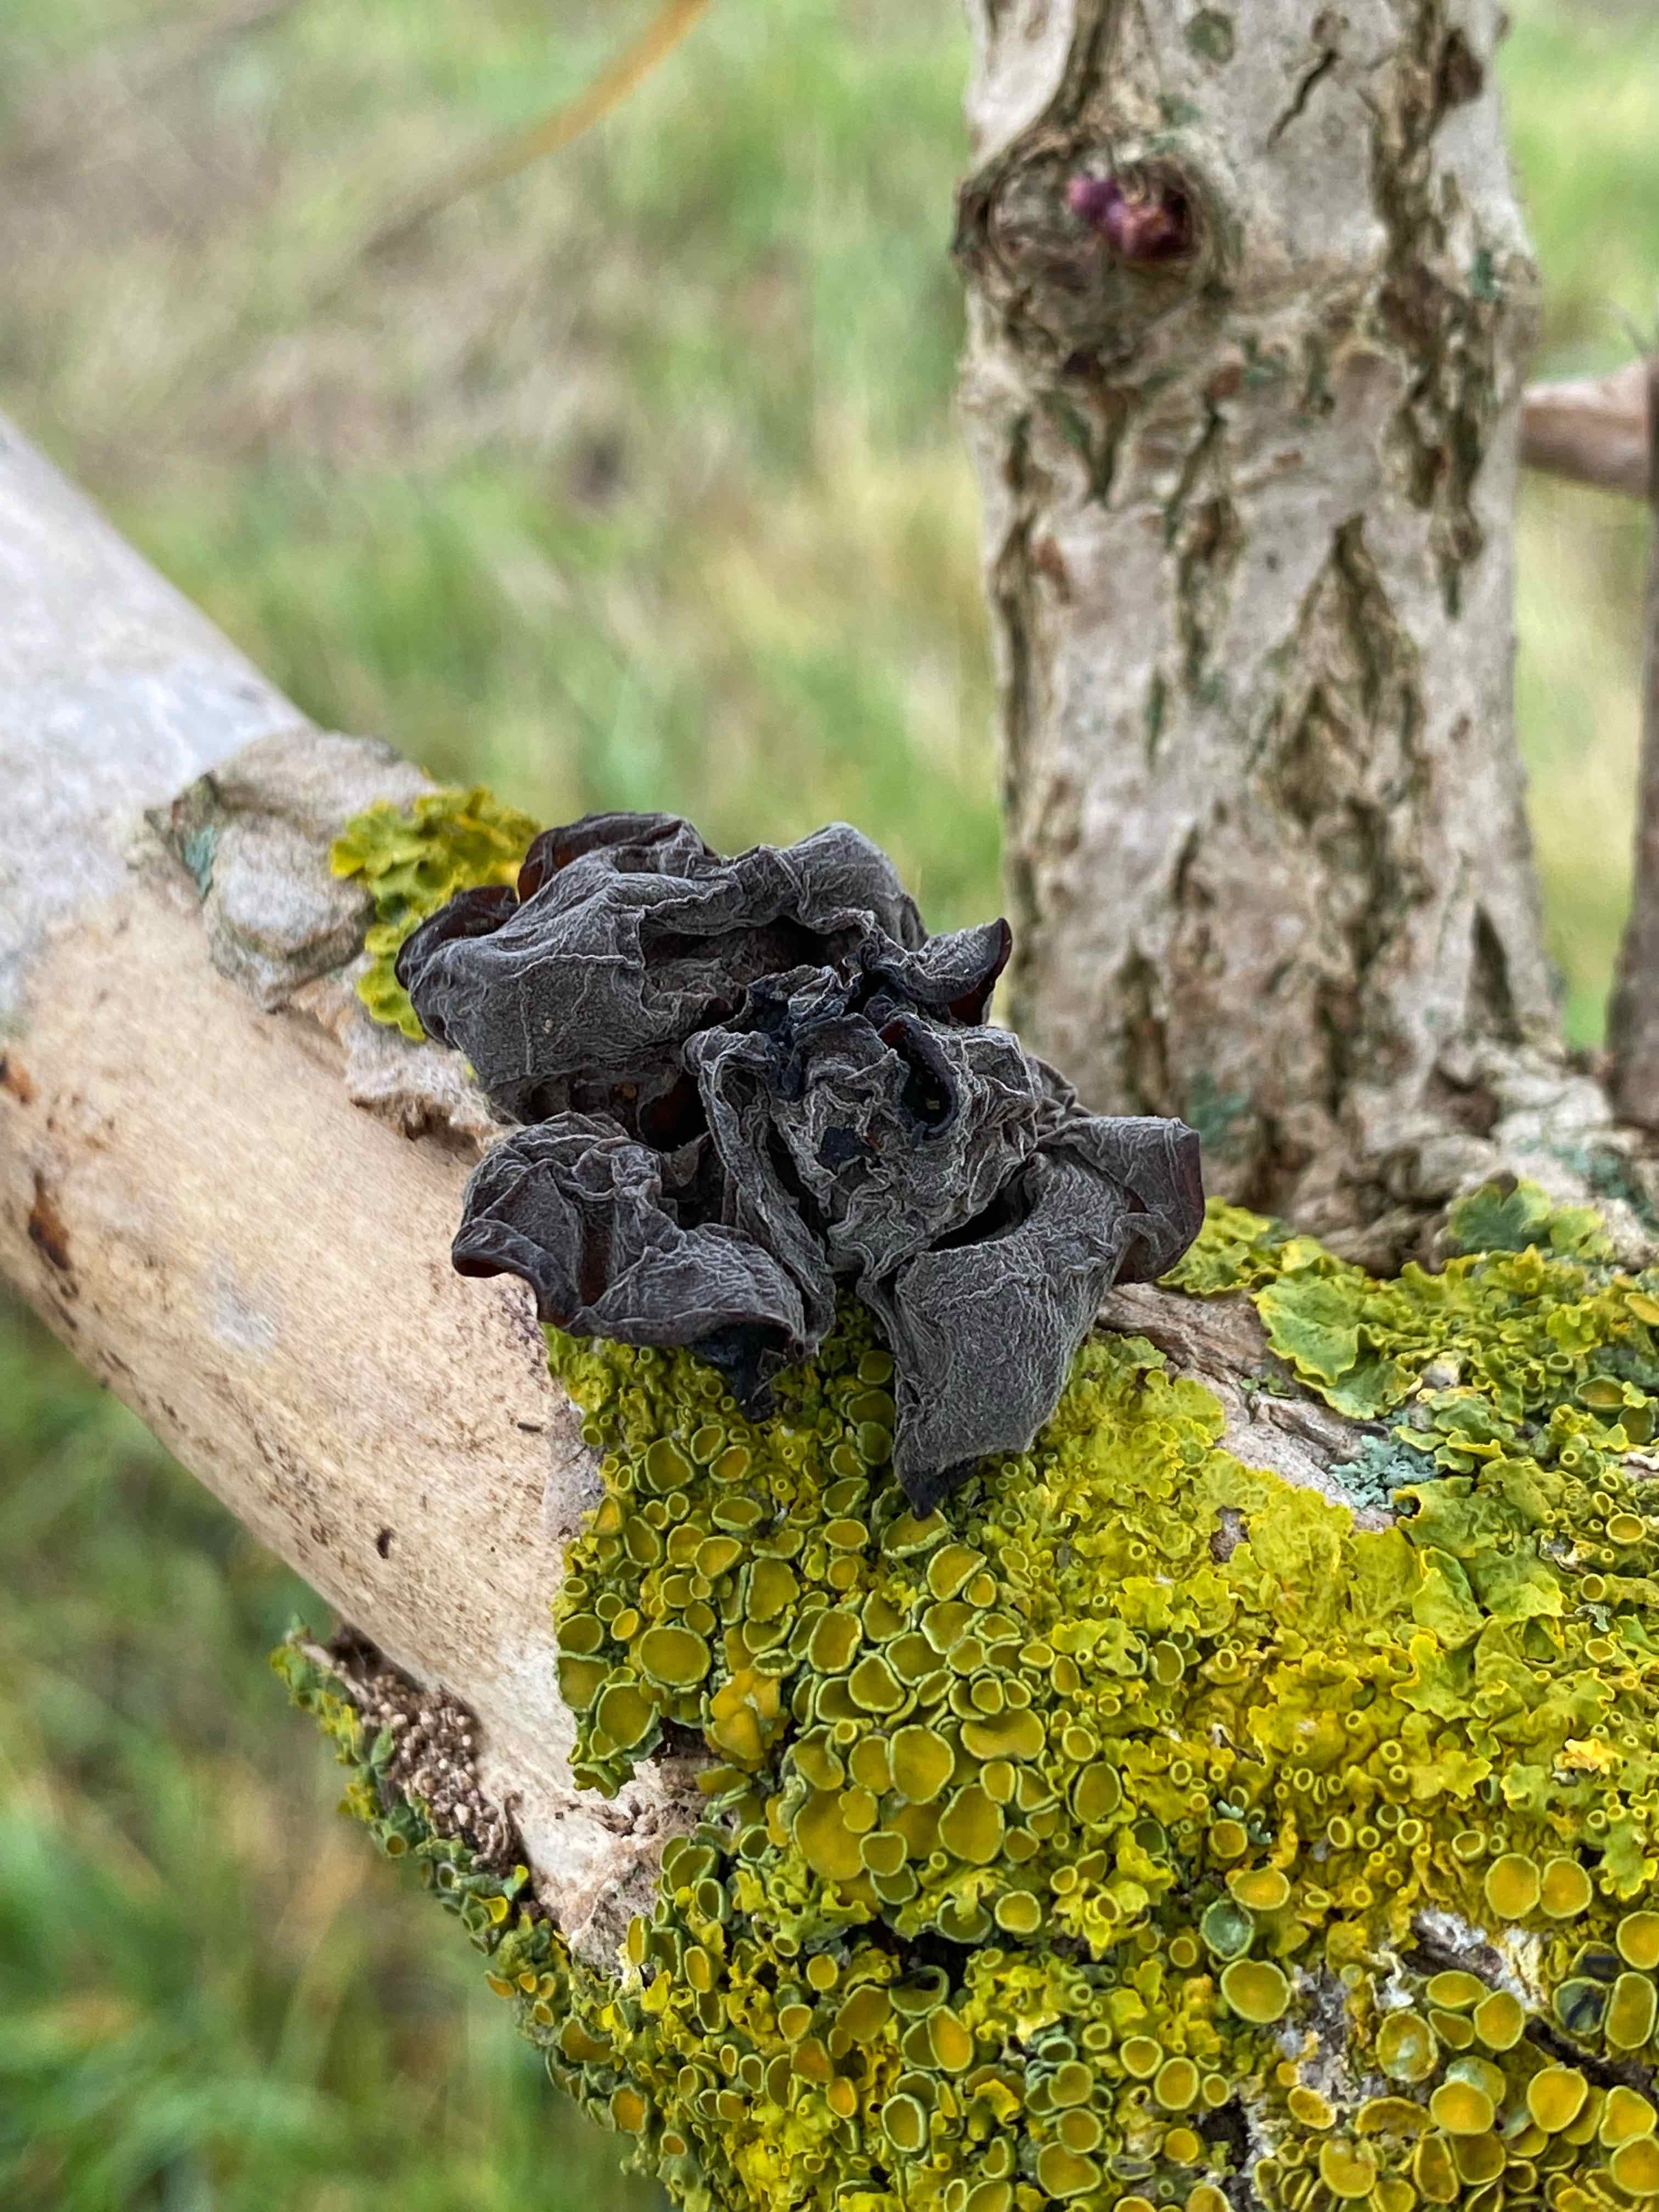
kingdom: Fungi
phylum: Basidiomycota
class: Agaricomycetes
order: Auriculariales
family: Auriculariaceae
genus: Exidia
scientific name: Exidia glandulosa
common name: ege-bævretop
